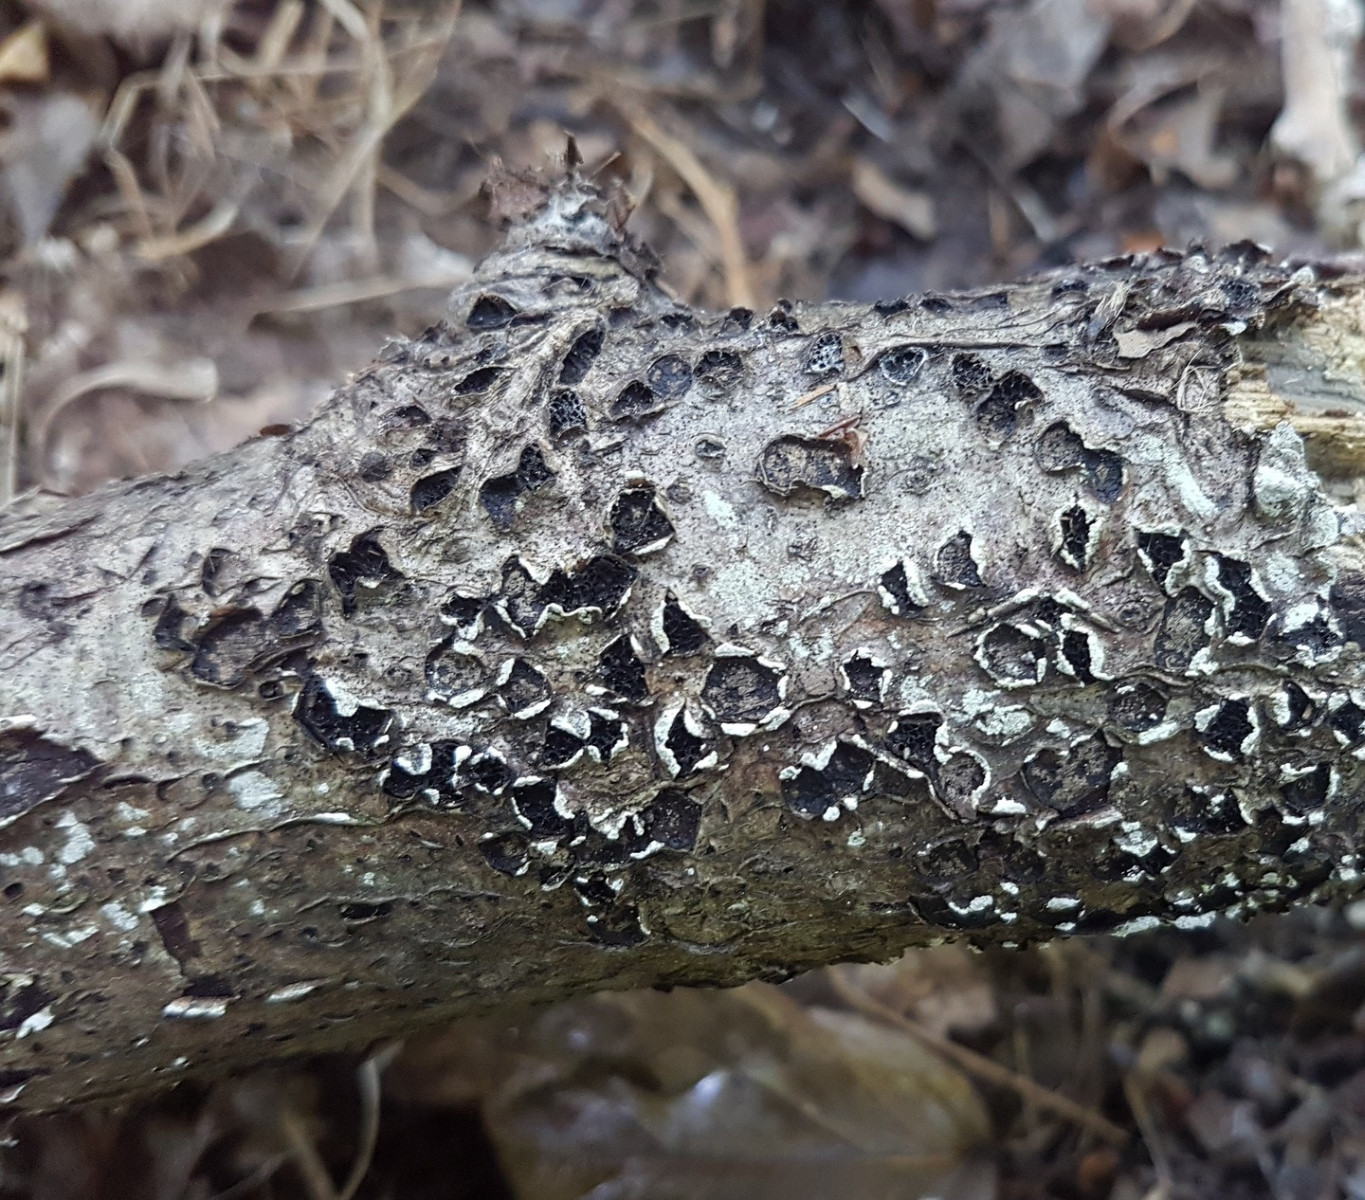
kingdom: Fungi
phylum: Ascomycota
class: Sordariomycetes
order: Xylariales
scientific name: Xylariales
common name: stødsvampordenen
